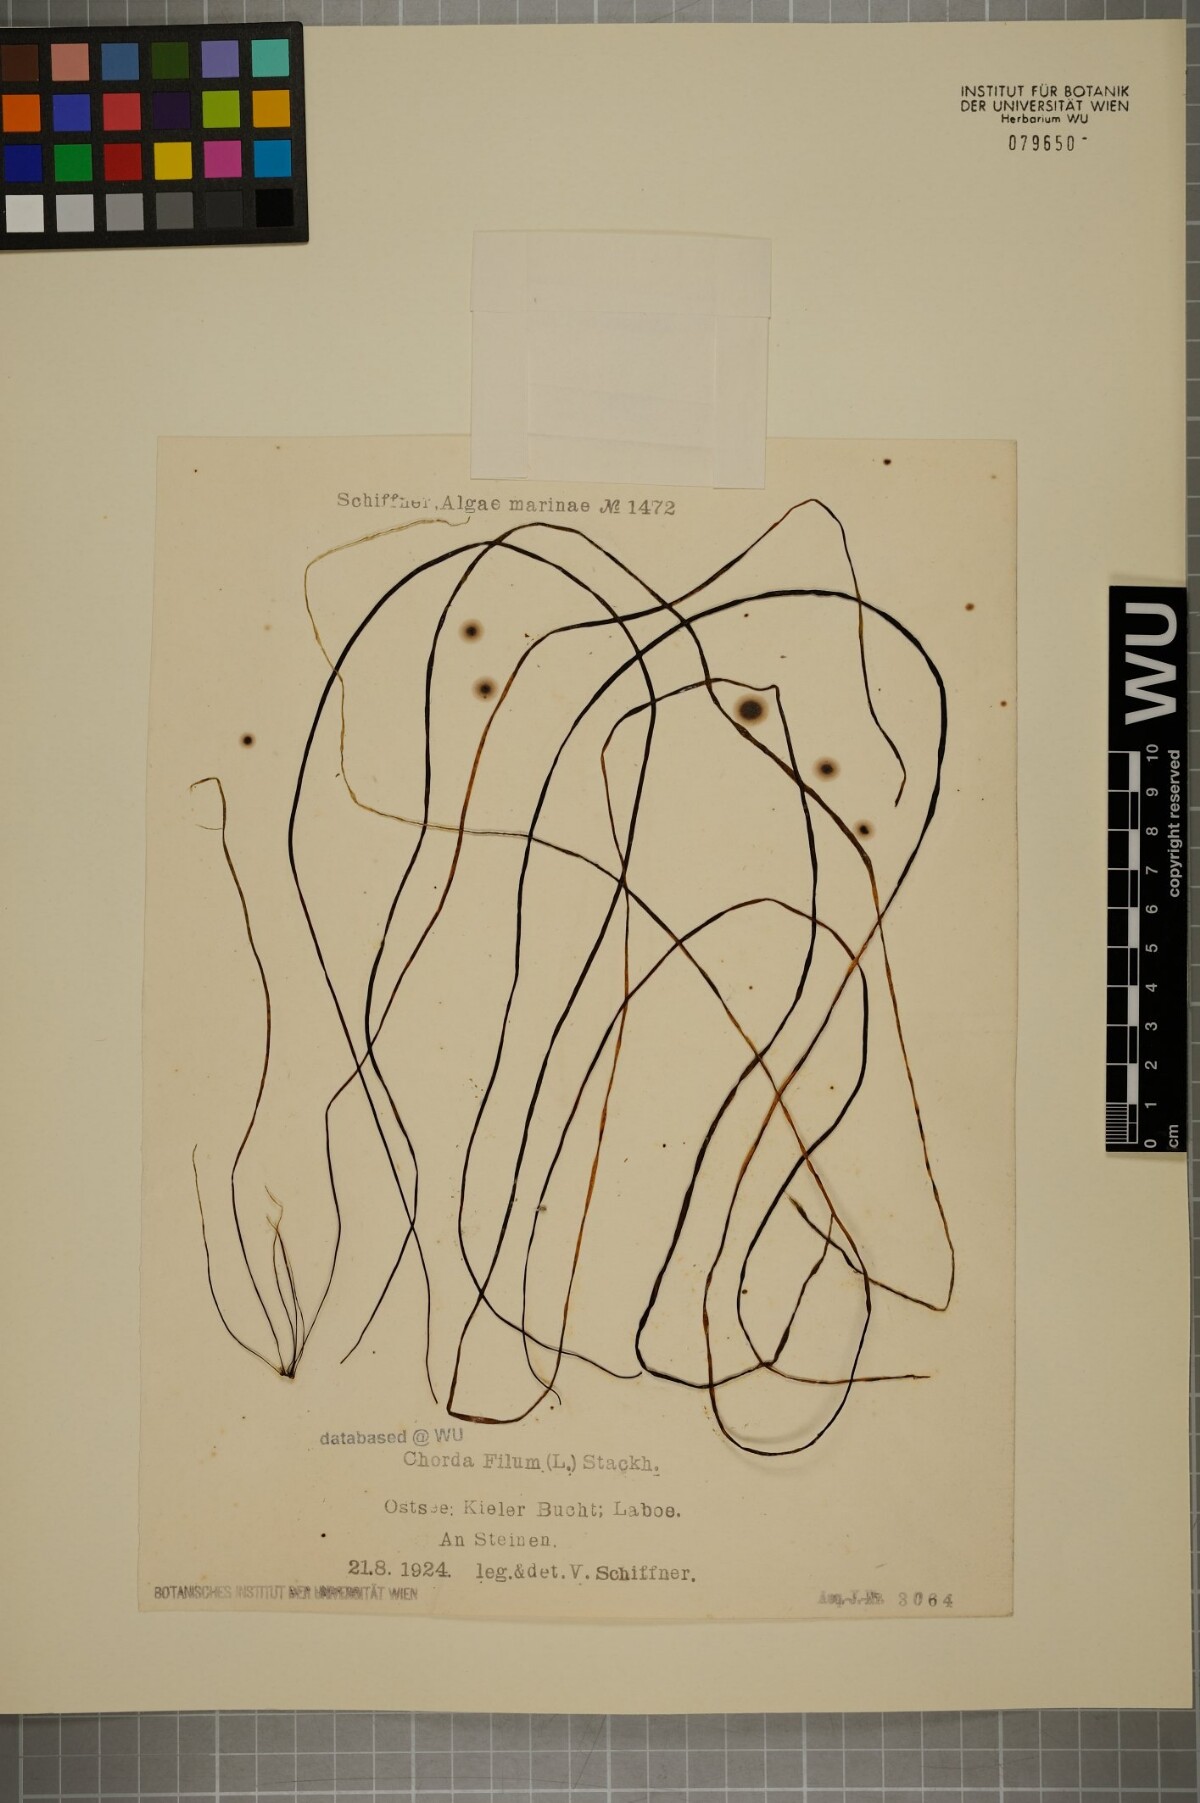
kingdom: Chromista
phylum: Ochrophyta
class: Phaeophyceae
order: Laminariales
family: Chordaceae
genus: Chorda
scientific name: Chorda filum
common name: Mermaid's tresses
